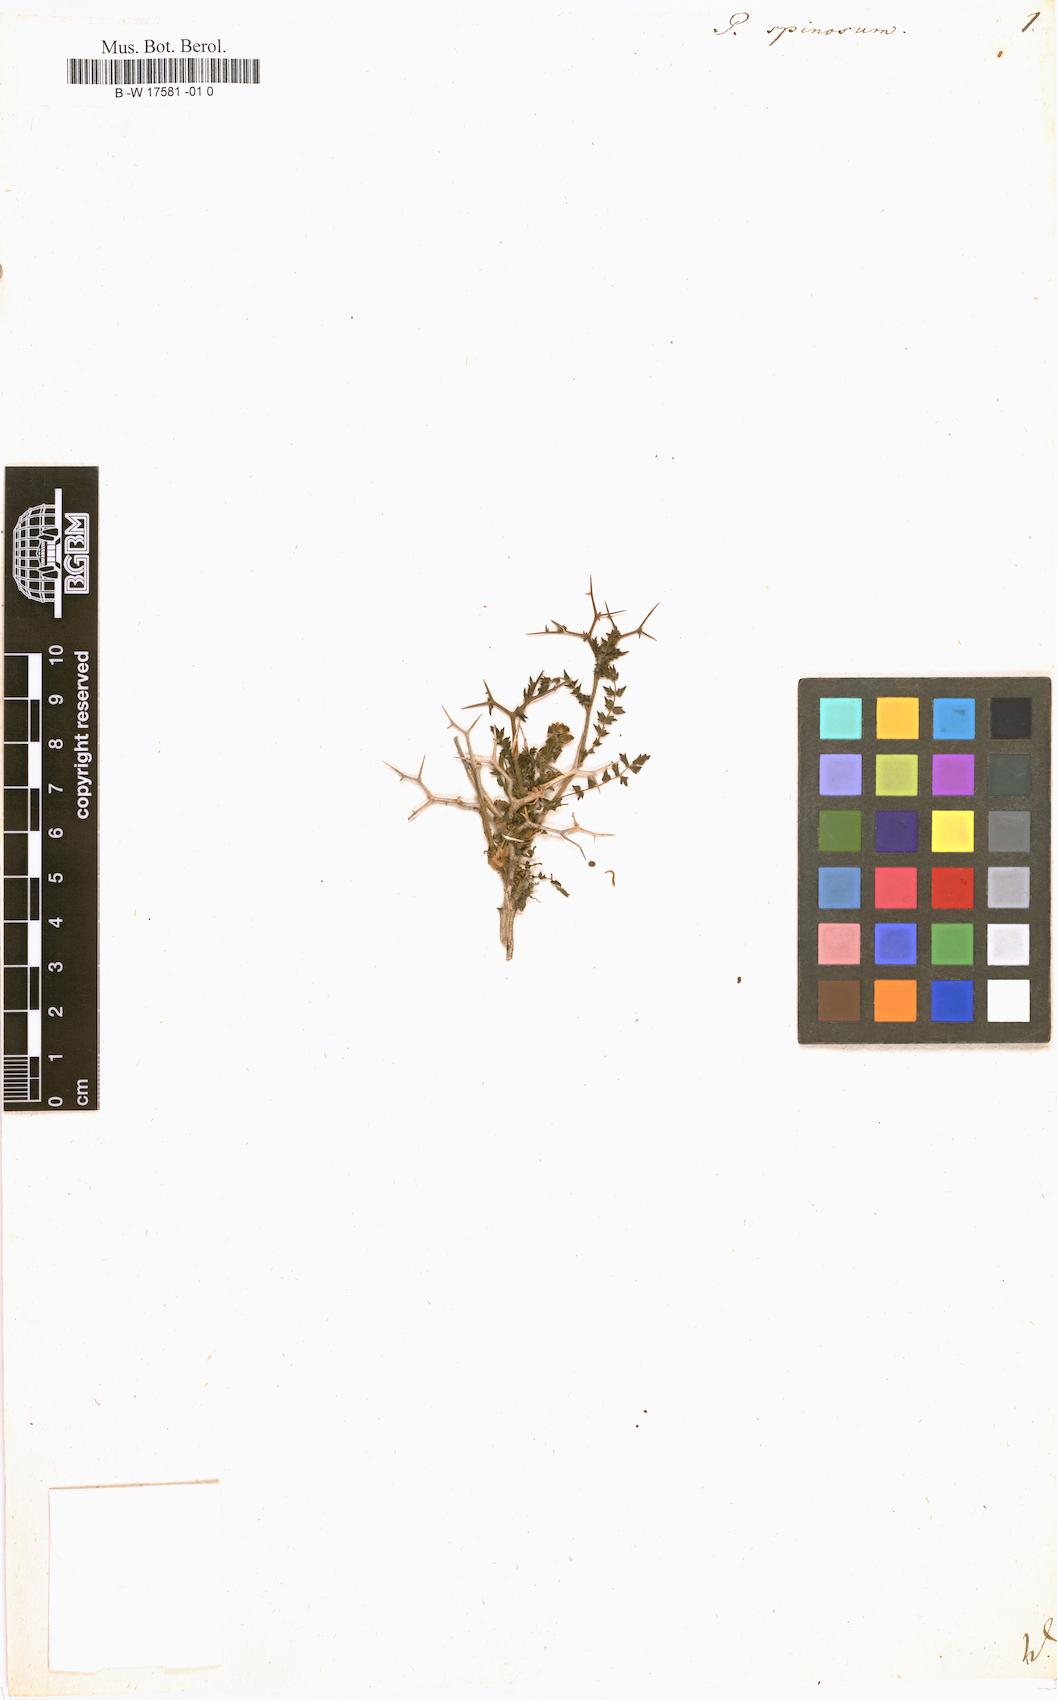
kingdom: Plantae
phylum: Tracheophyta
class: Magnoliopsida
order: Rosales
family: Rosaceae
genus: Sarcopoterium
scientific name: Sarcopoterium spinosum
